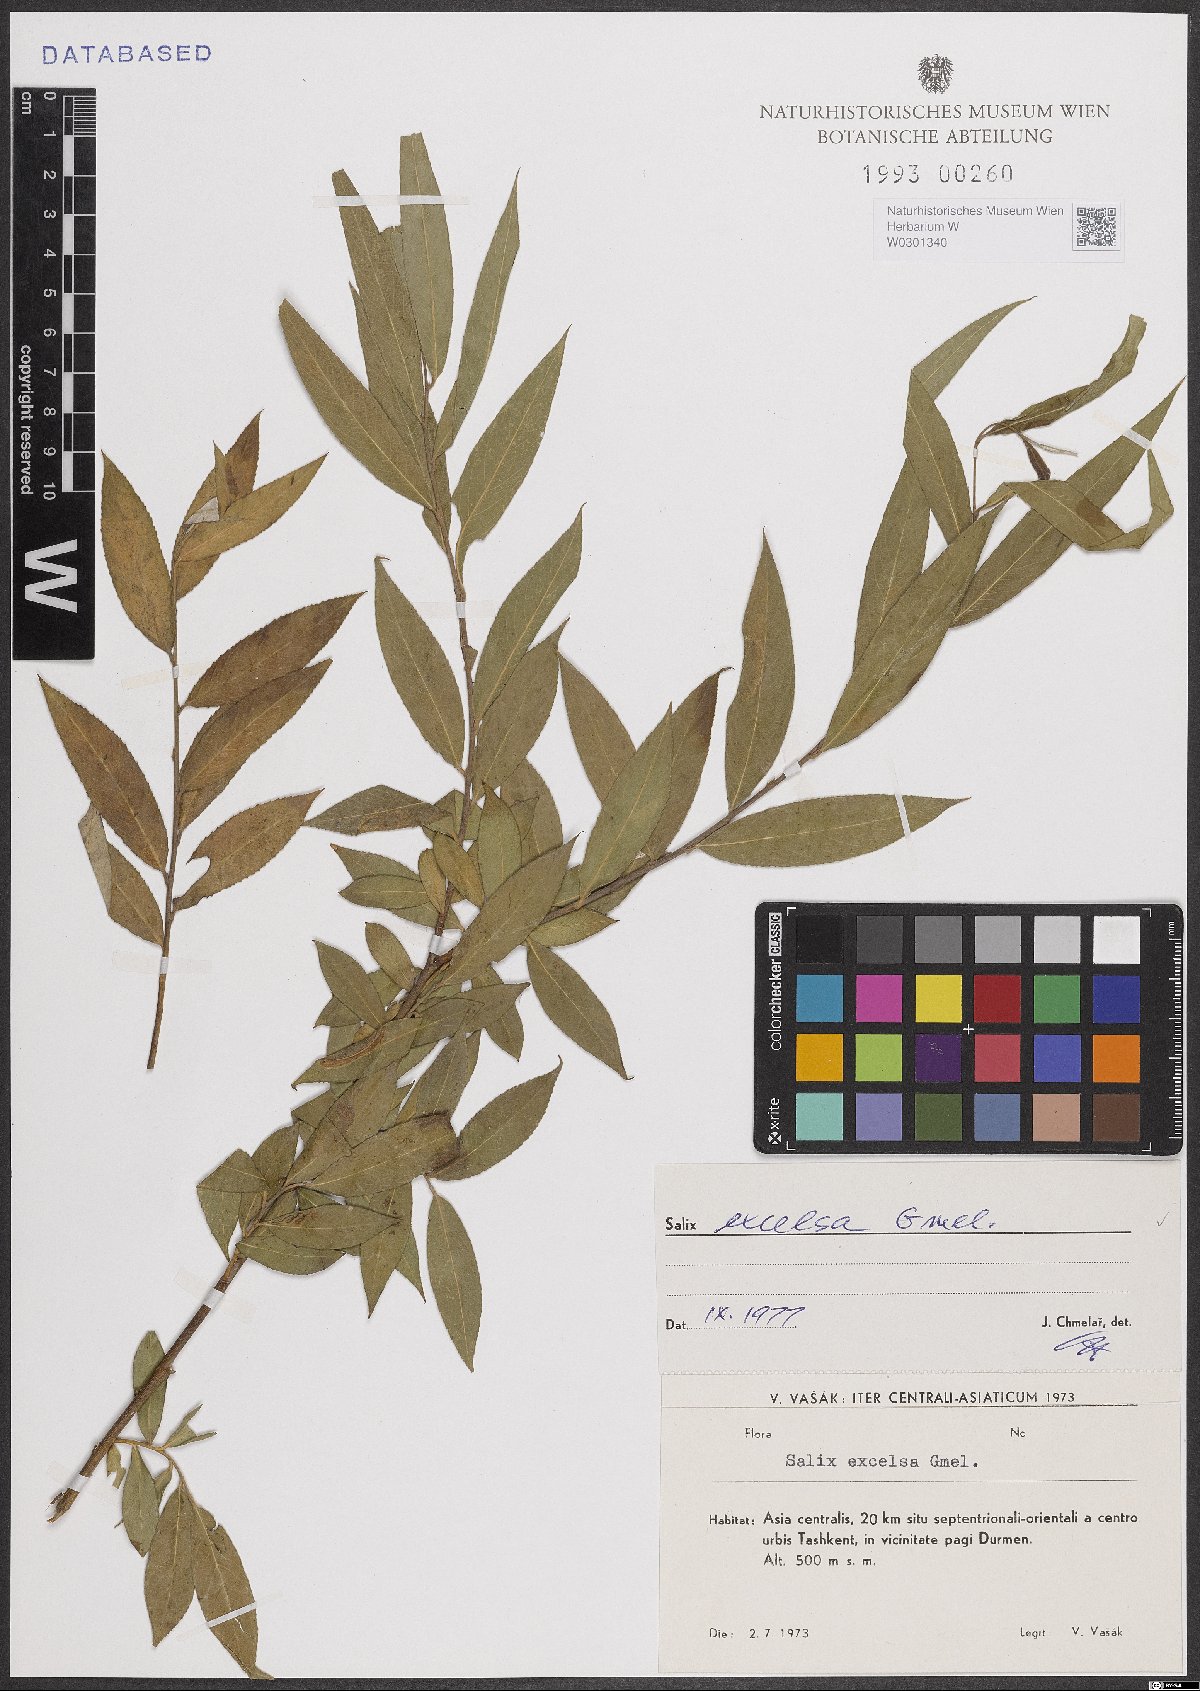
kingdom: Plantae
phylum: Tracheophyta
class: Magnoliopsida
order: Malpighiales
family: Salicaceae
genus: Salix
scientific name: Salix excelsa
